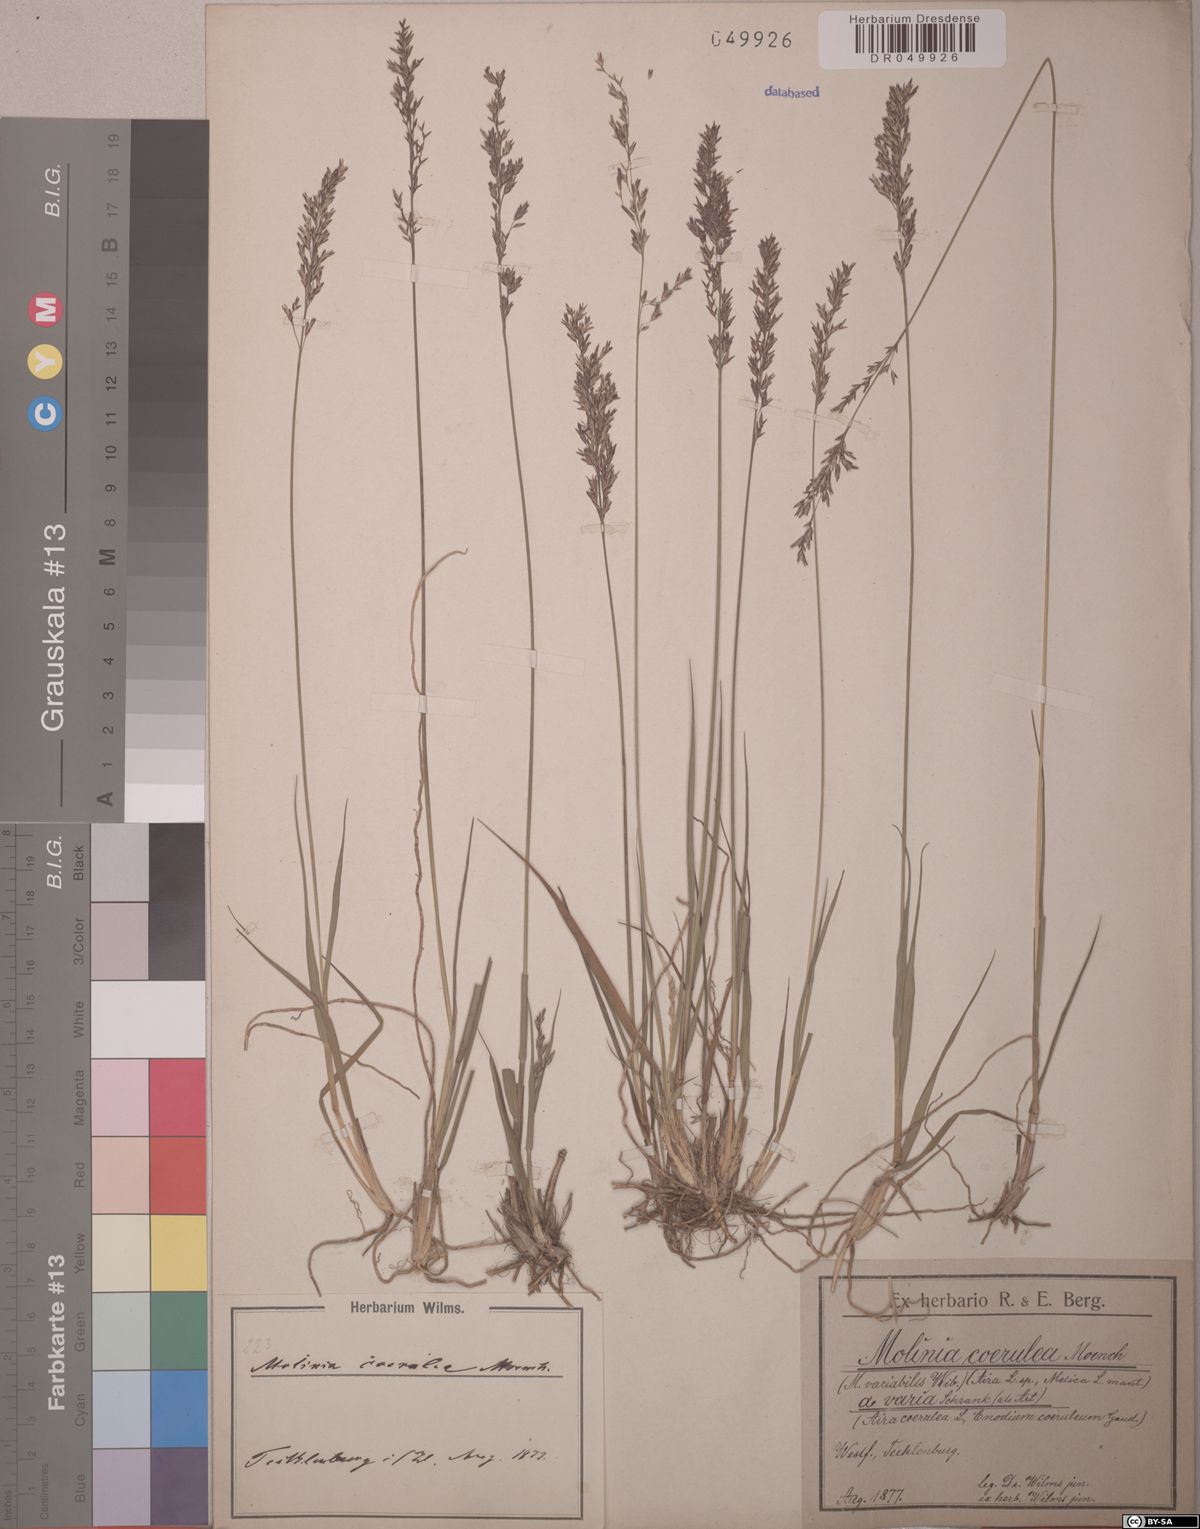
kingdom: Plantae
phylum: Tracheophyta
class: Liliopsida
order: Poales
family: Poaceae
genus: Molinia
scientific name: Molinia caerulea
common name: Purple moor-grass
